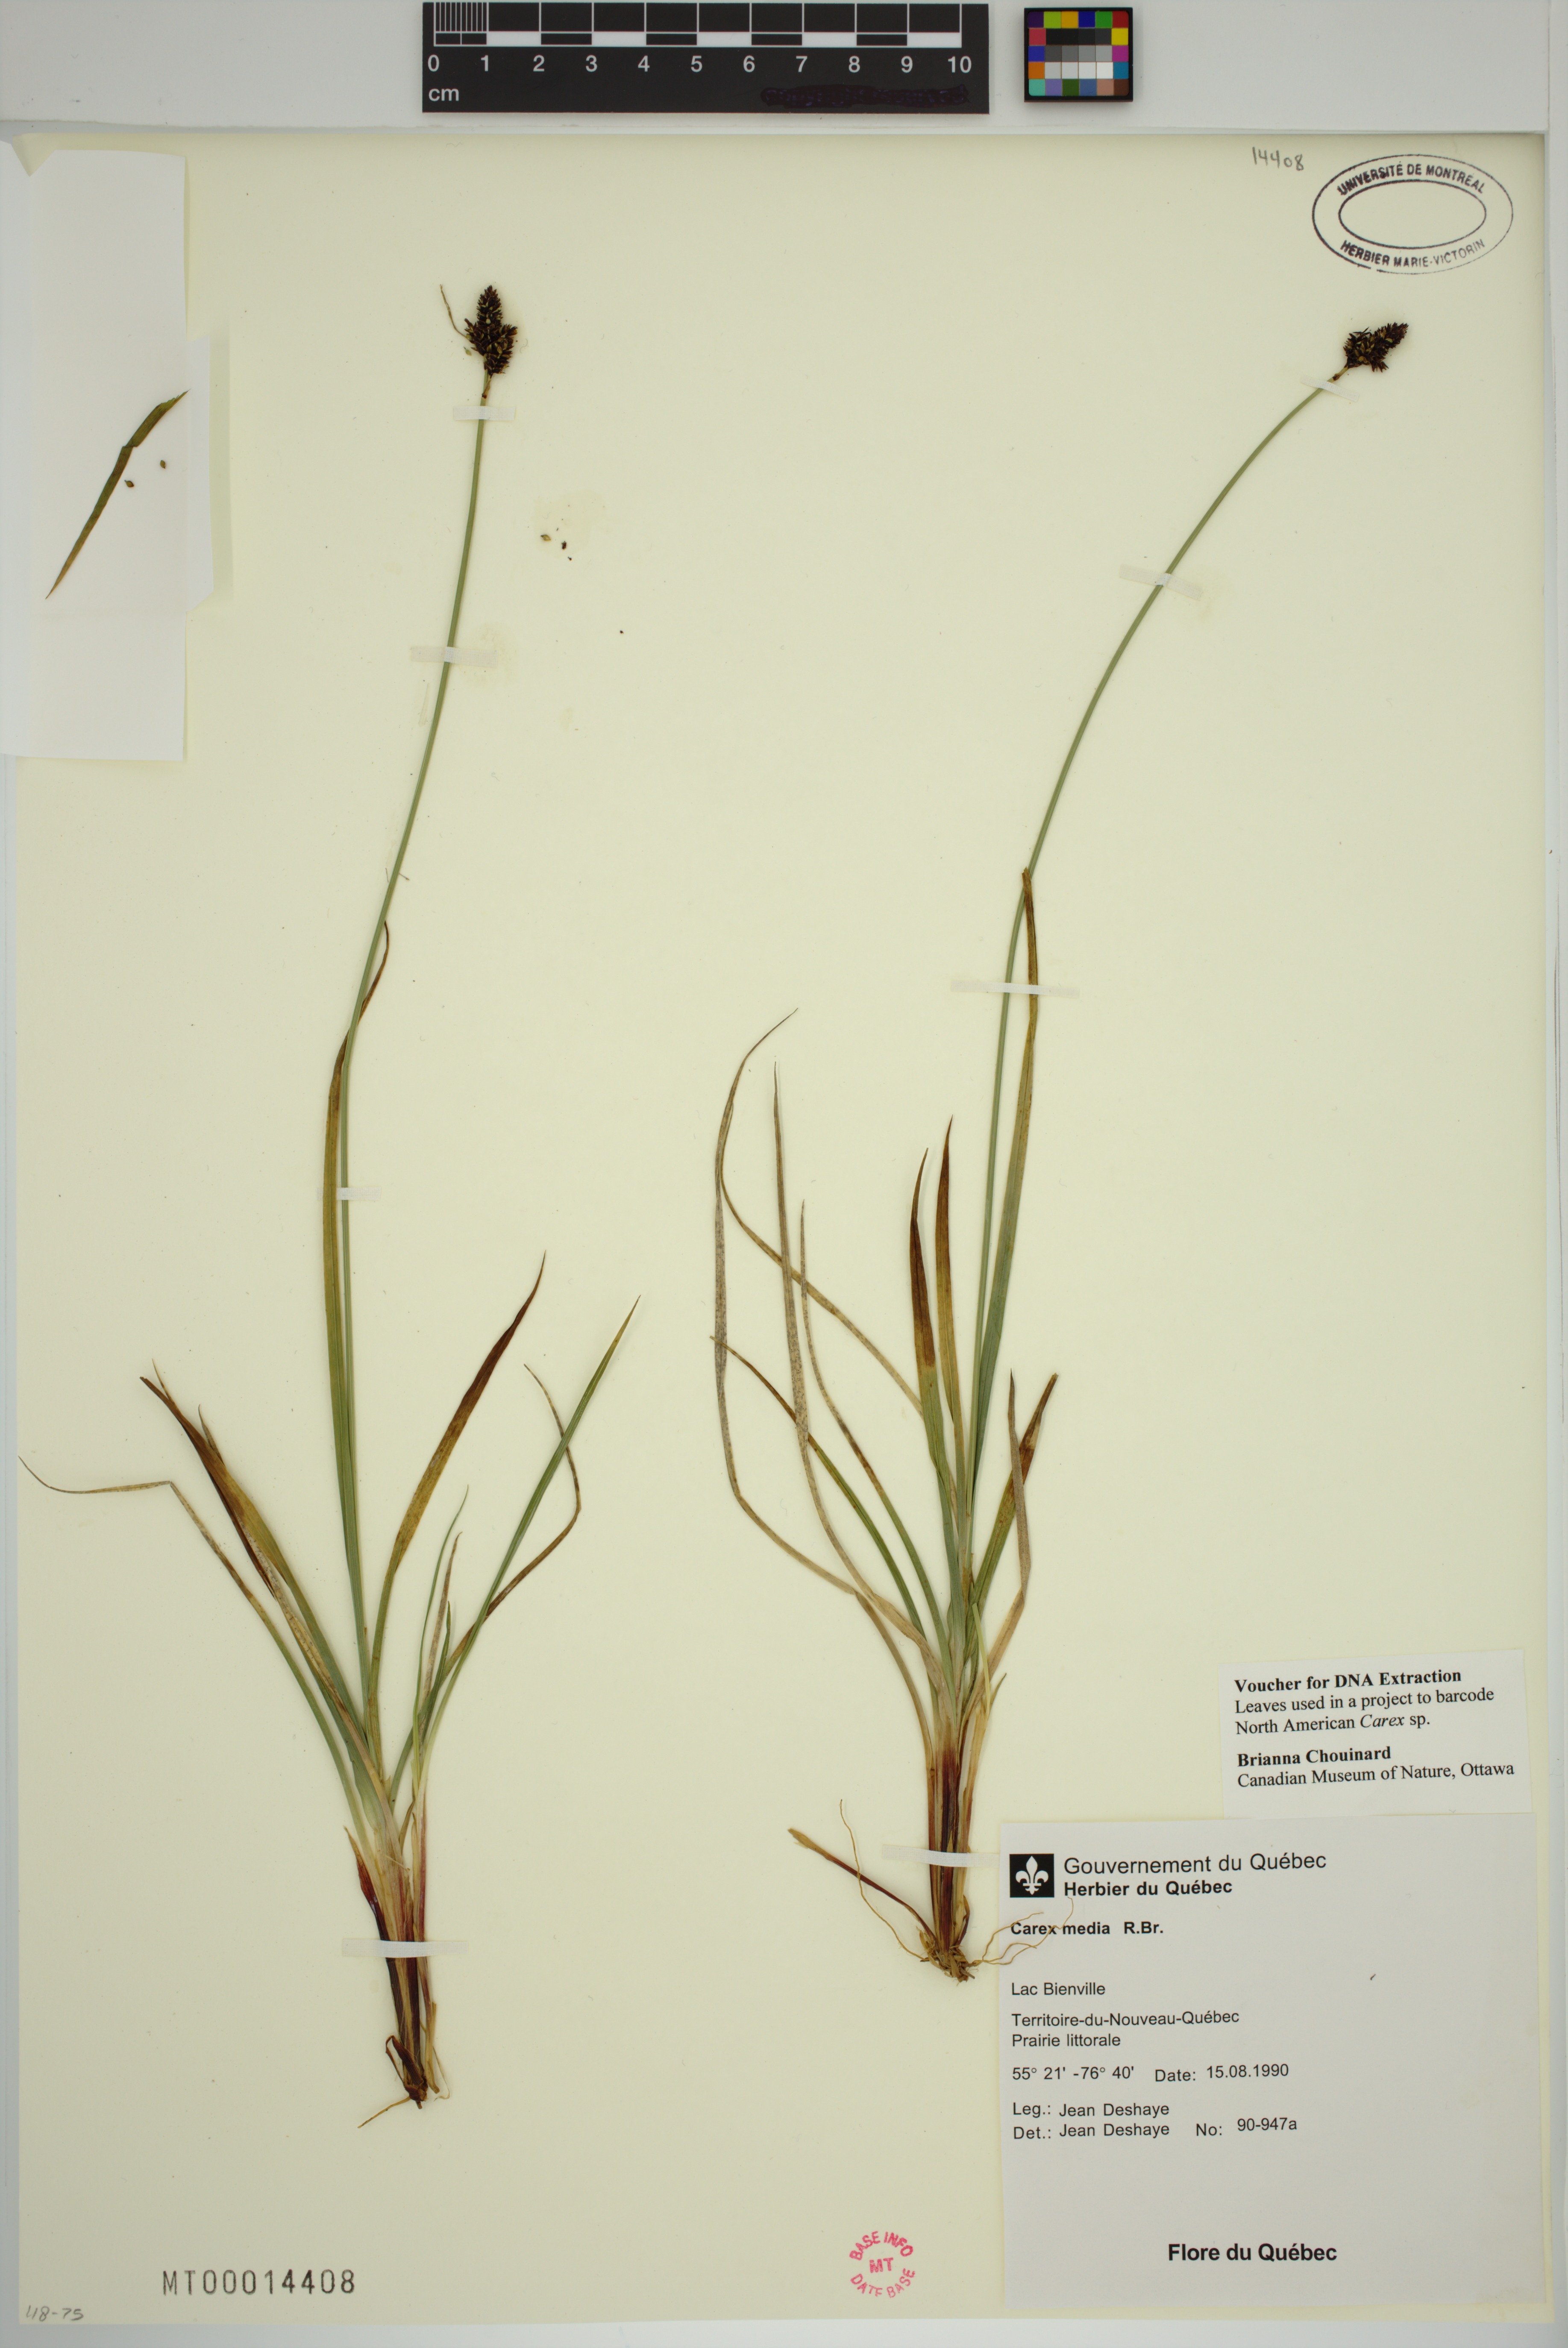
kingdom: Plantae
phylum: Tracheophyta
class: Liliopsida
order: Poales
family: Cyperaceae
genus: Carex
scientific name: Carex media
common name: Alpine sedge
